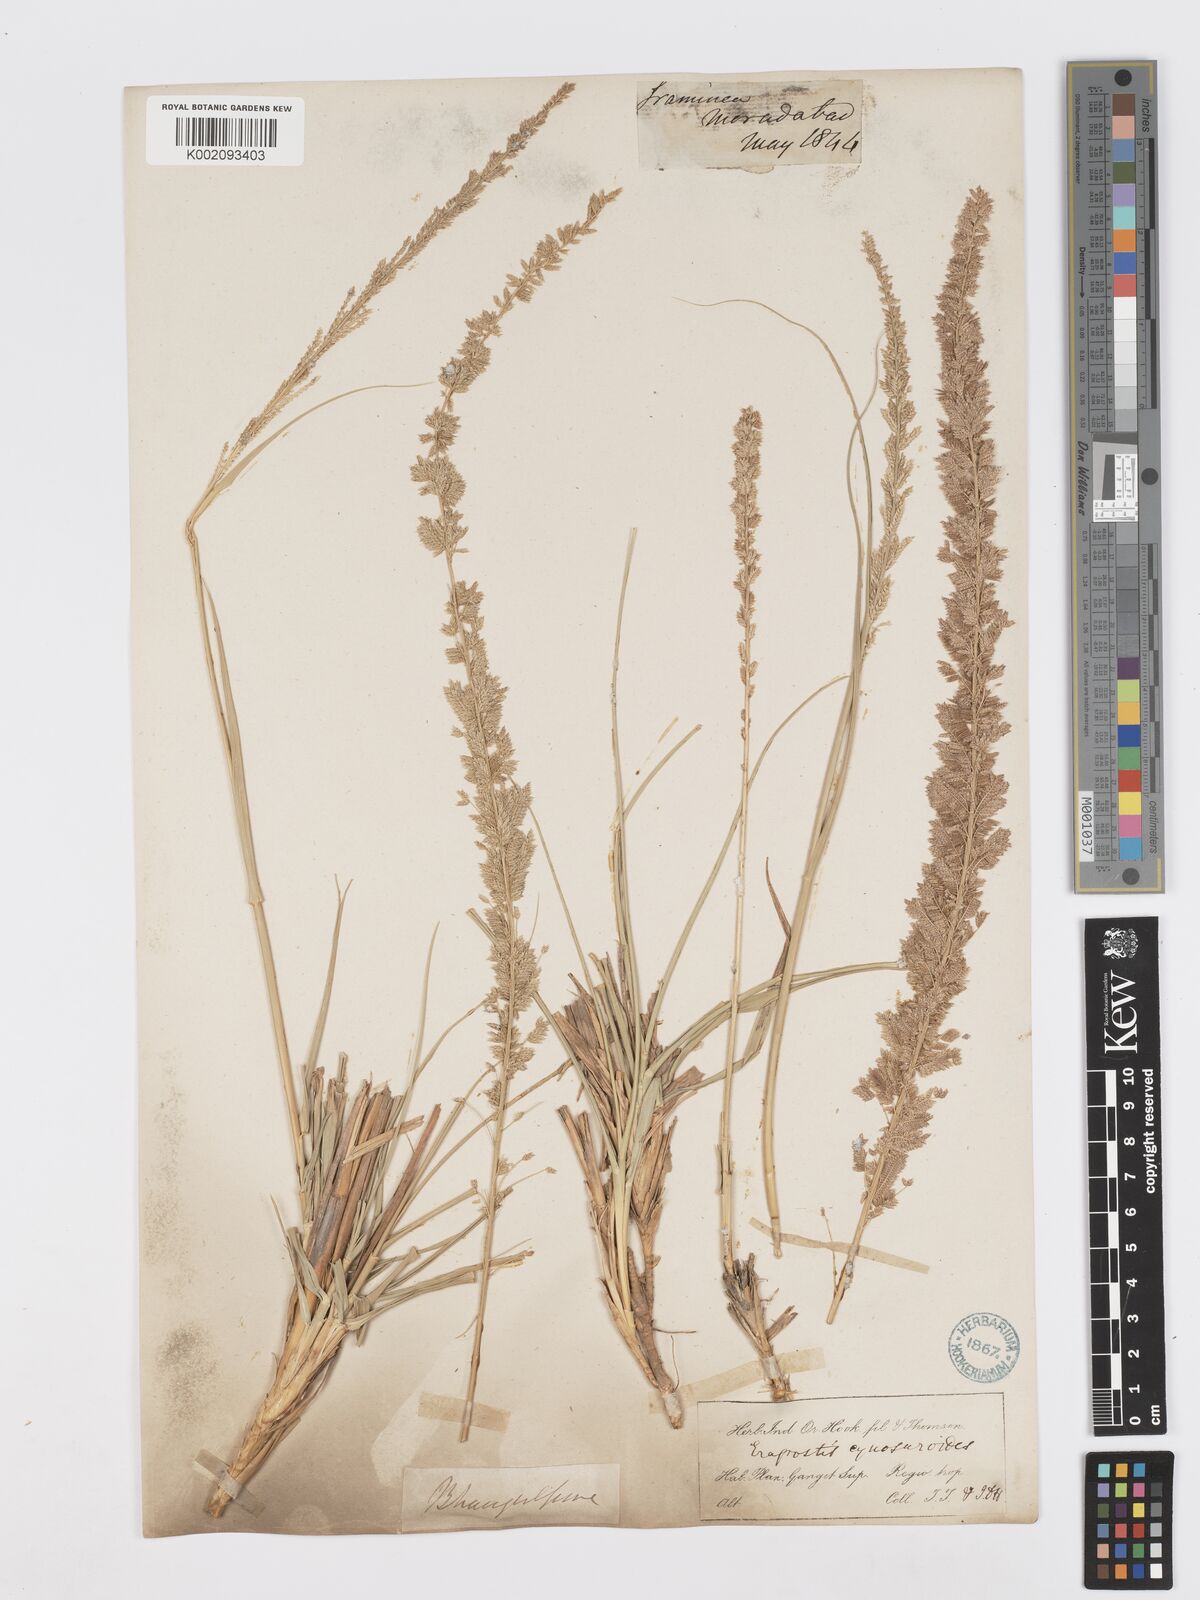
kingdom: Plantae
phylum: Tracheophyta
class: Liliopsida
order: Poales
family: Poaceae
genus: Desmostachya
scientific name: Desmostachya bipinnata
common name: Crowfoot grass
